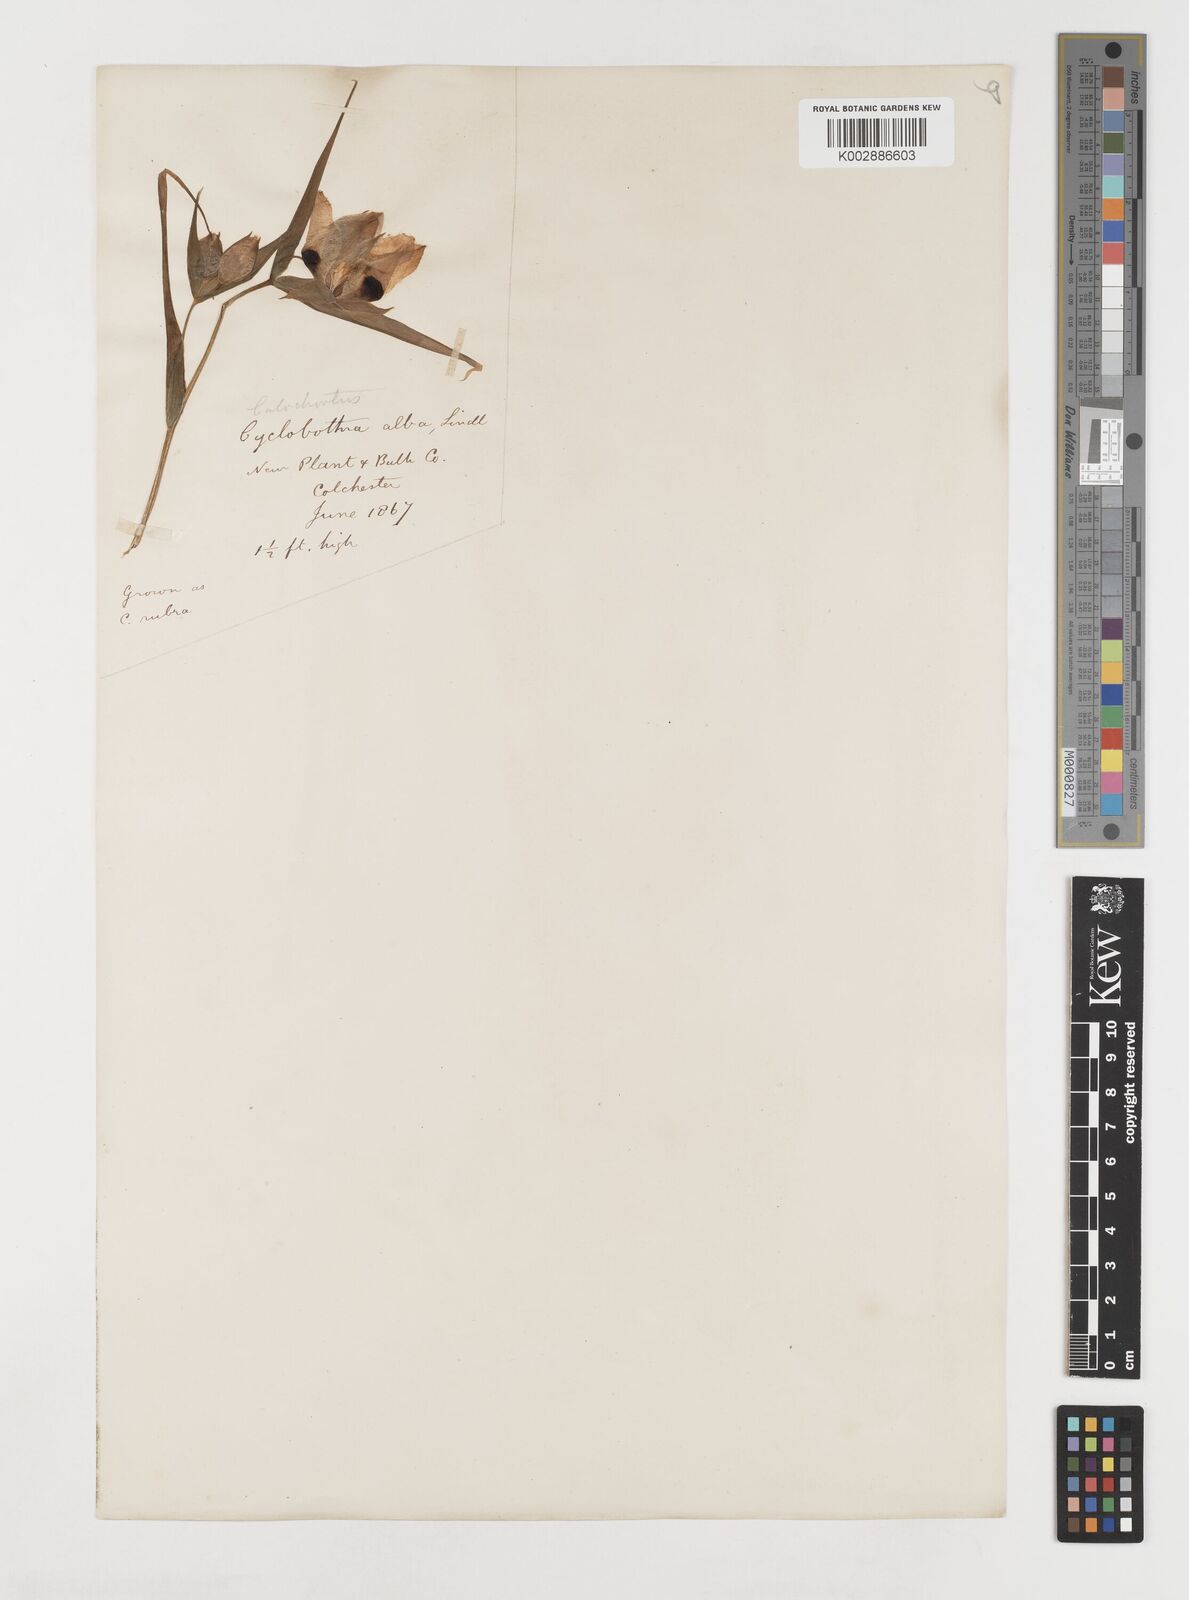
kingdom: Plantae
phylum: Tracheophyta
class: Liliopsida
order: Liliales
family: Liliaceae
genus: Calochortus
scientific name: Calochortus albus
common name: Fairy-lantern
